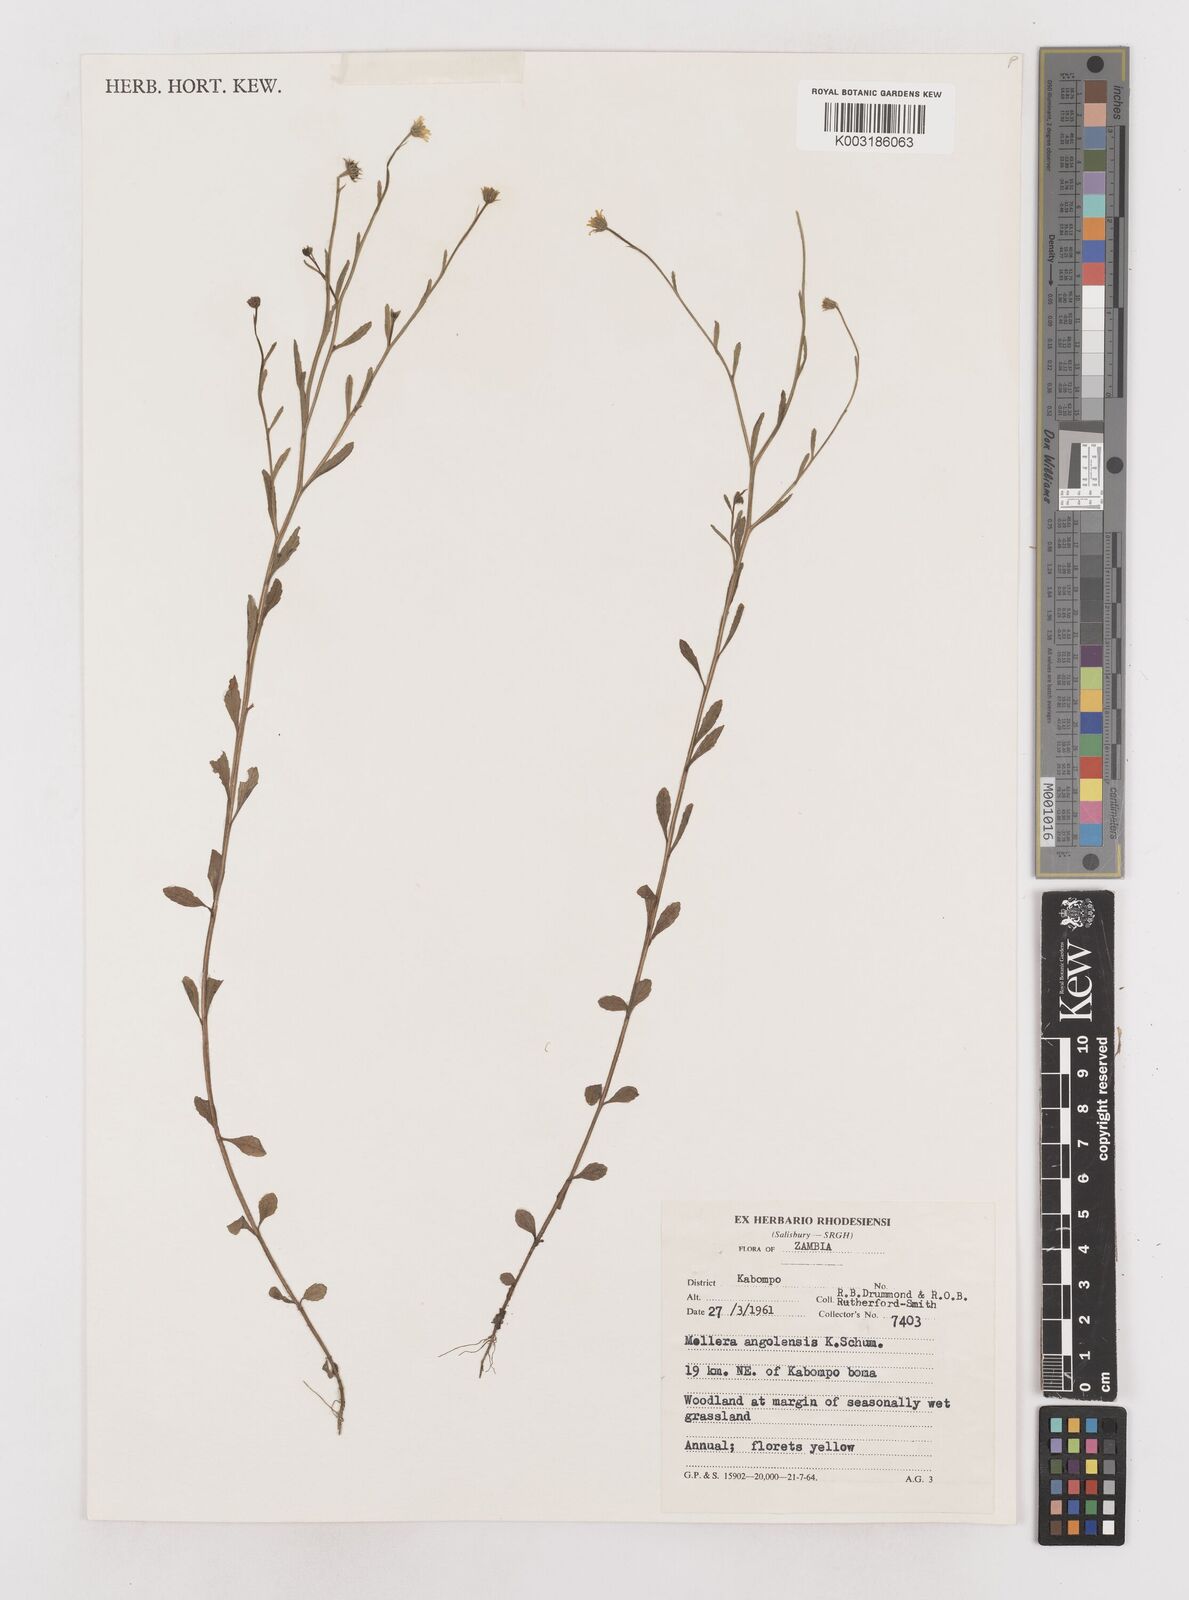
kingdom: Plantae
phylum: Tracheophyta
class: Magnoliopsida
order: Asterales
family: Asteraceae
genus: Calostephane
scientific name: Calostephane angolensis
